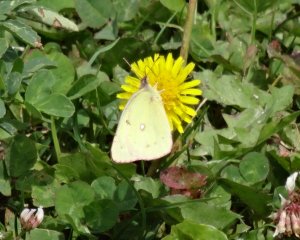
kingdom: Animalia
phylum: Arthropoda
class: Insecta
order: Lepidoptera
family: Pieridae
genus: Colias
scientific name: Colias philodice
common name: Clouded Sulphur
